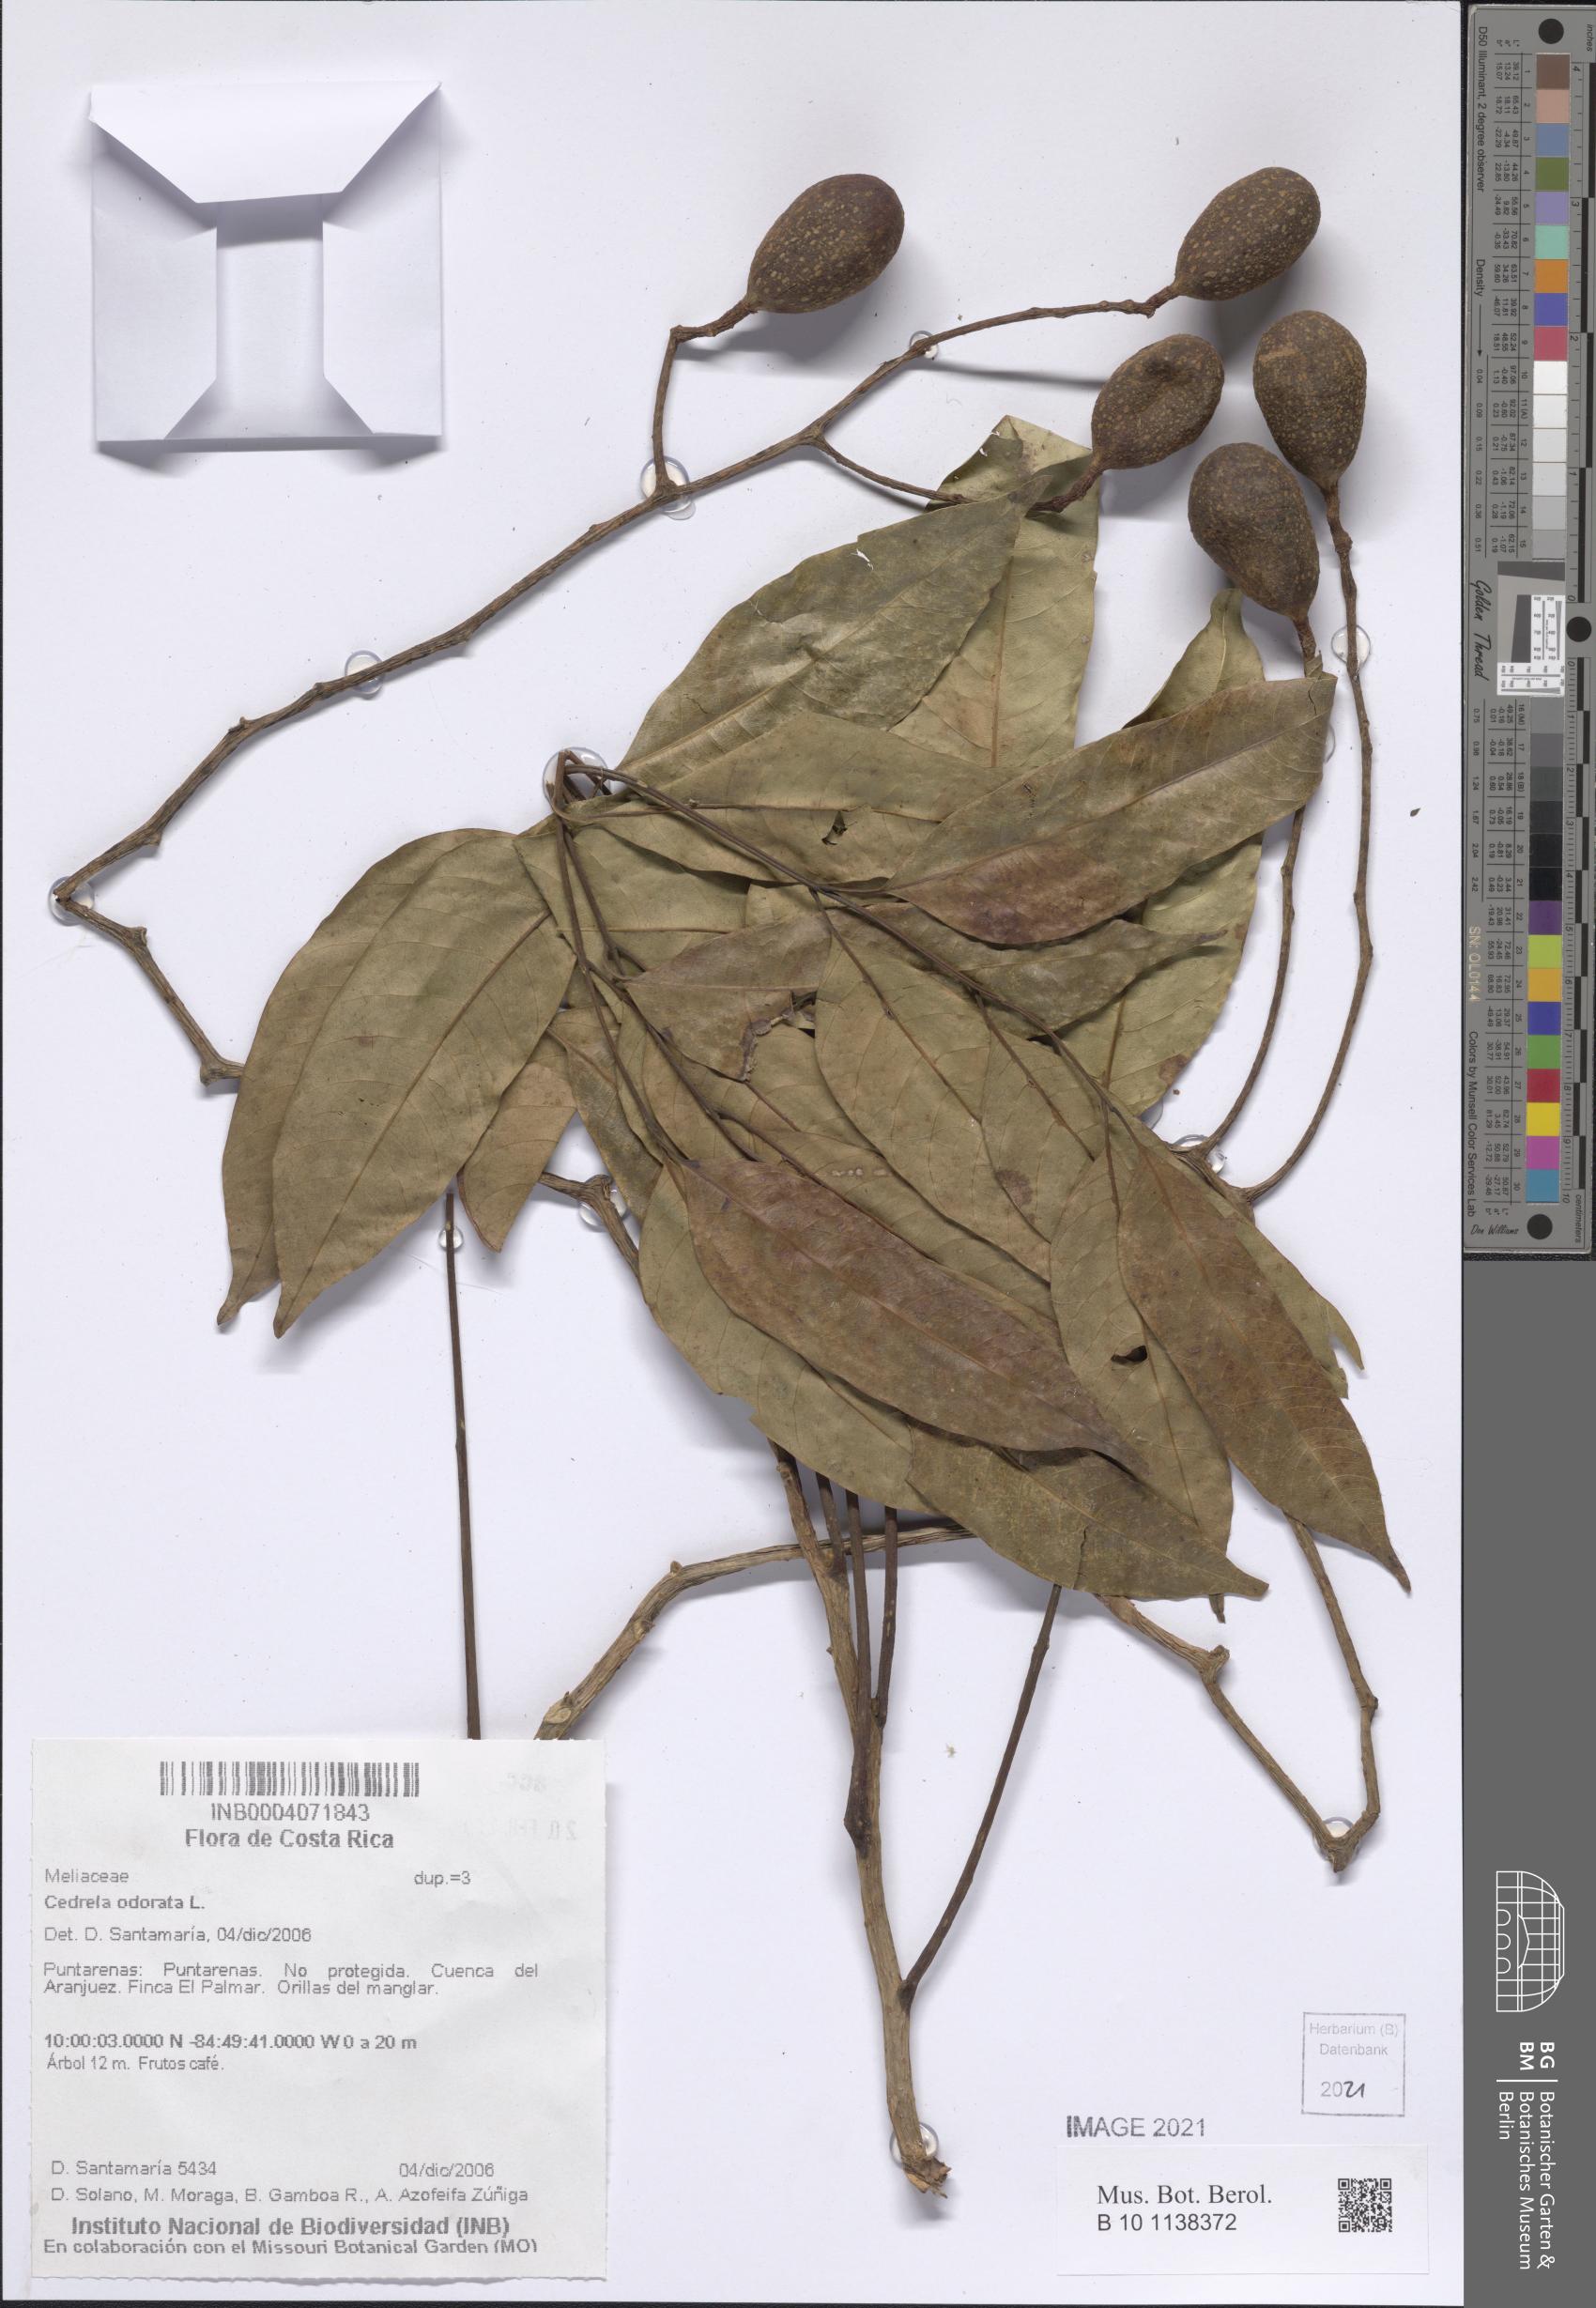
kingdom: Plantae
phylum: Tracheophyta
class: Magnoliopsida
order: Sapindales
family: Meliaceae
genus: Cedrela
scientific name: Cedrela odorata
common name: Red cedar
